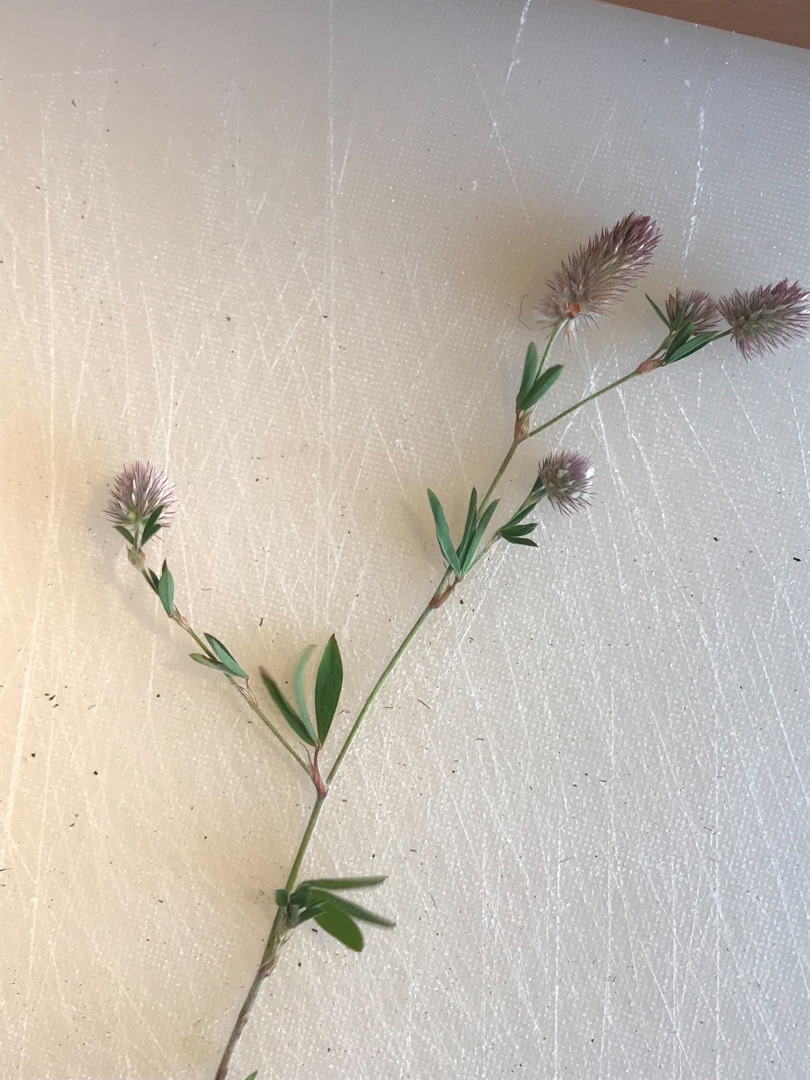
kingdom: Plantae
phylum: Tracheophyta
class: Magnoliopsida
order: Fabales
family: Fabaceae
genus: Trifolium
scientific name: Trifolium arvense
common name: Hare-kløver
